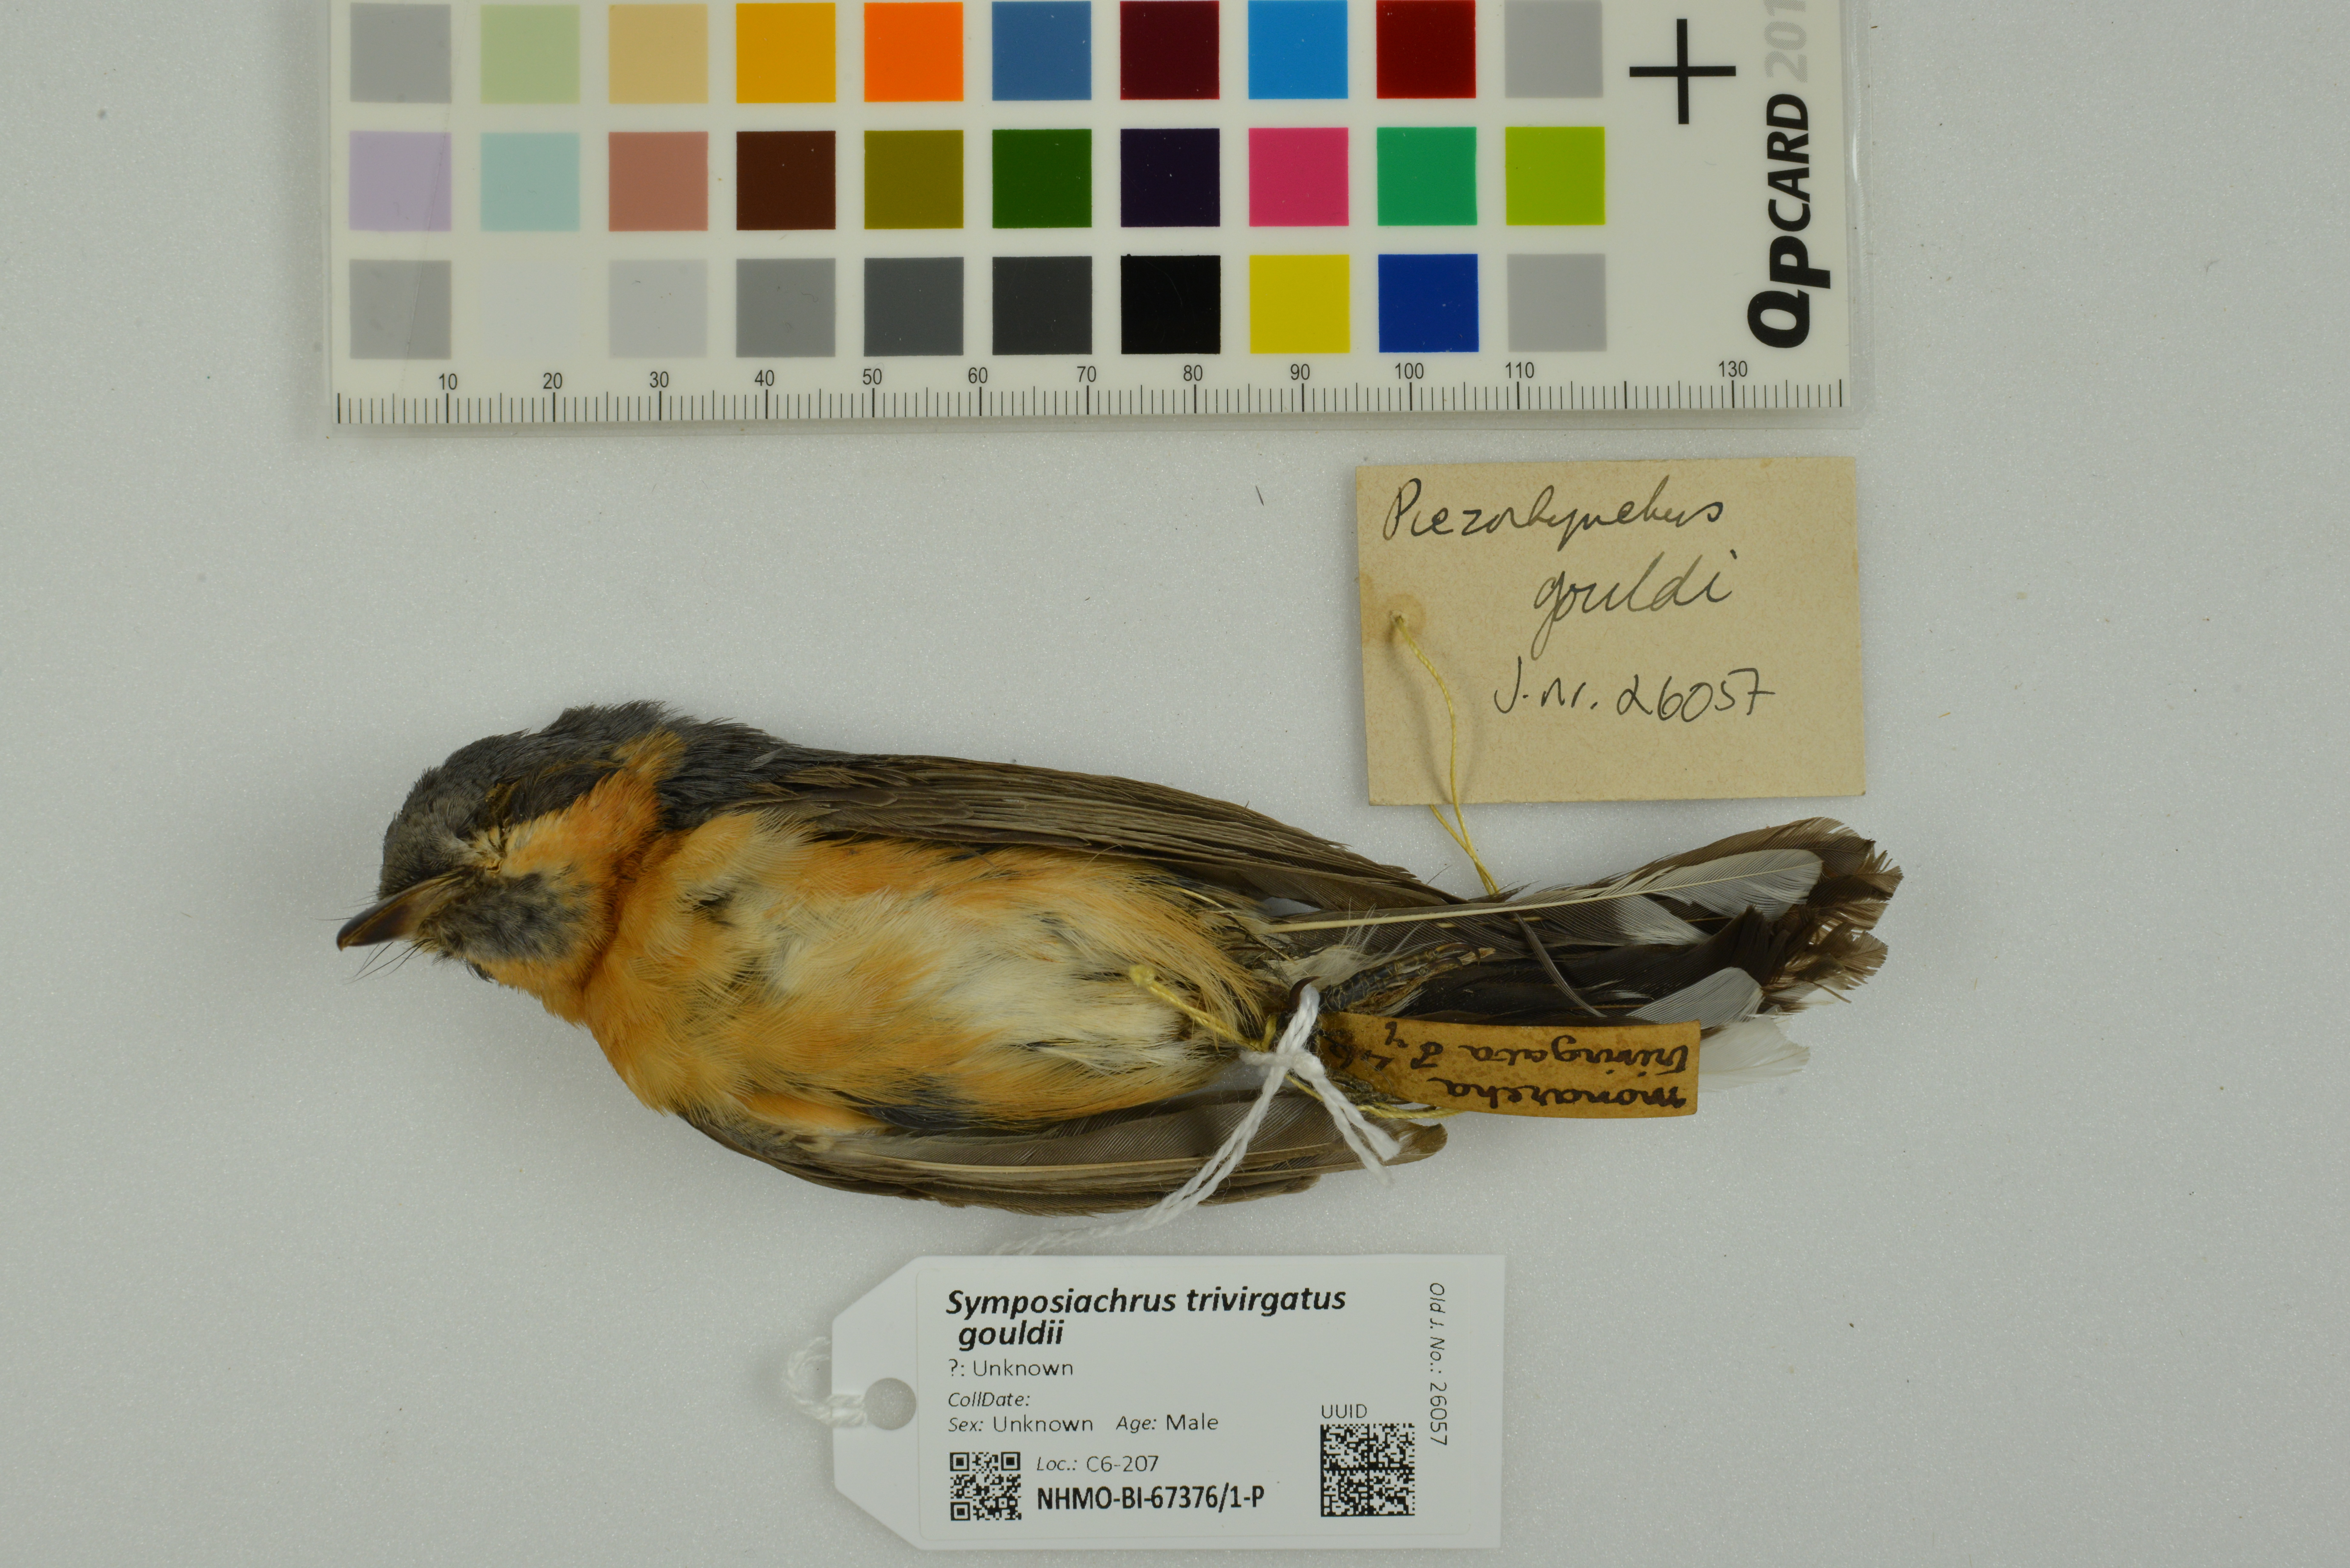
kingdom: Animalia
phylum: Chordata
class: Aves
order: Passeriformes
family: Monarchidae
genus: Symposiachrus
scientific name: Symposiachrus trivirgatus
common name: Spectacled monarch
